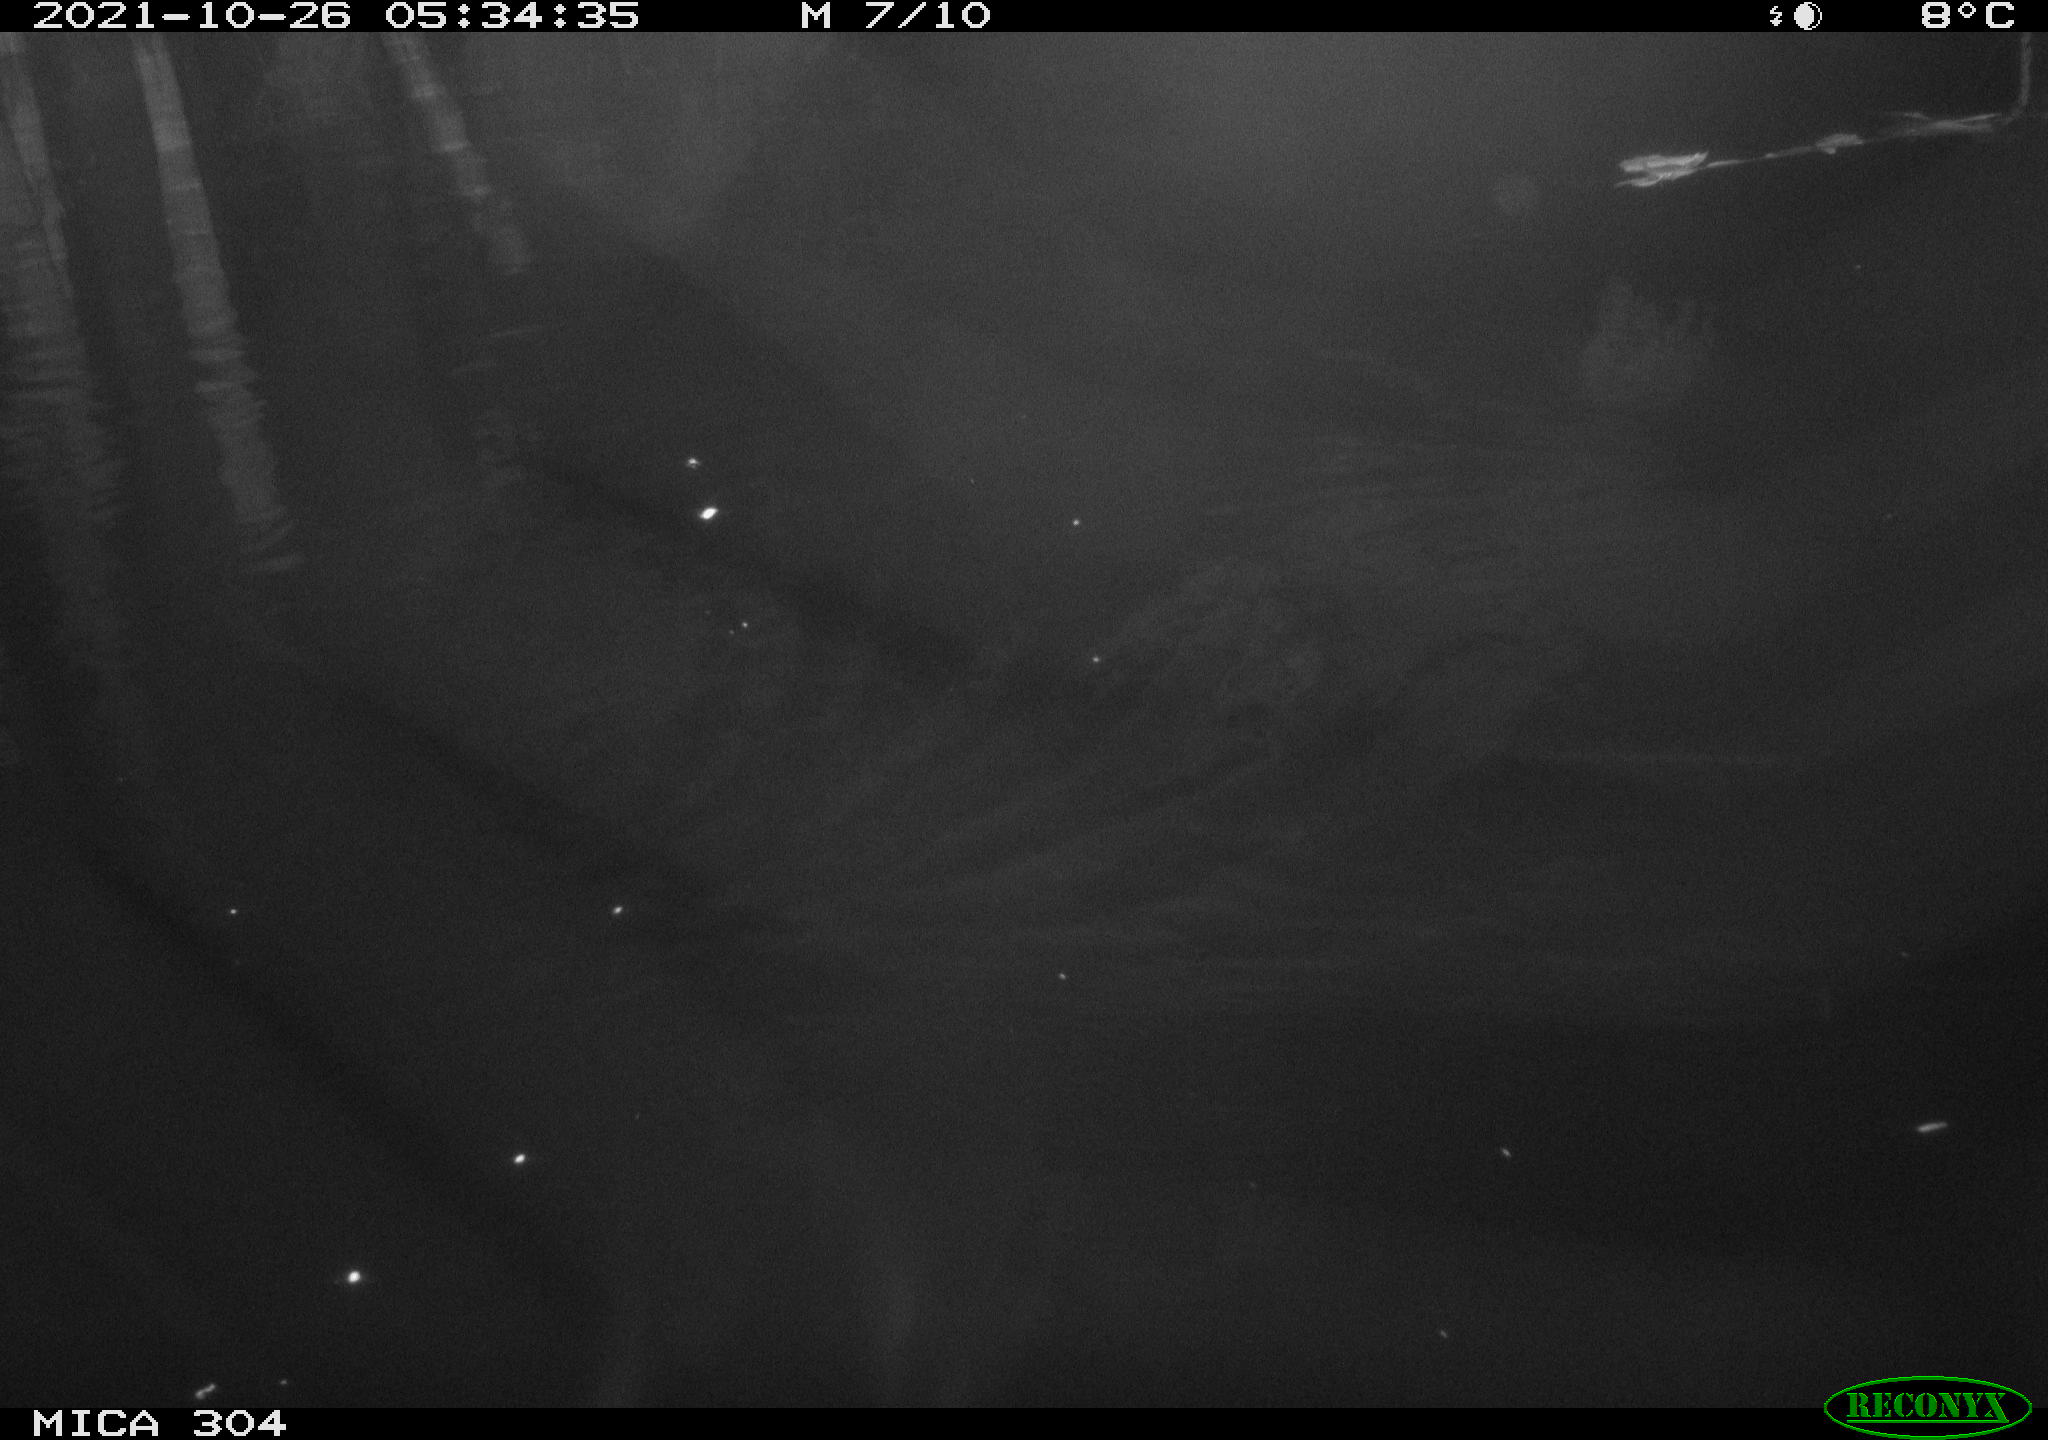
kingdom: Animalia
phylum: Chordata
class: Mammalia
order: Rodentia
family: Muridae
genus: Rattus
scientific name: Rattus norvegicus
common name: Brown rat
